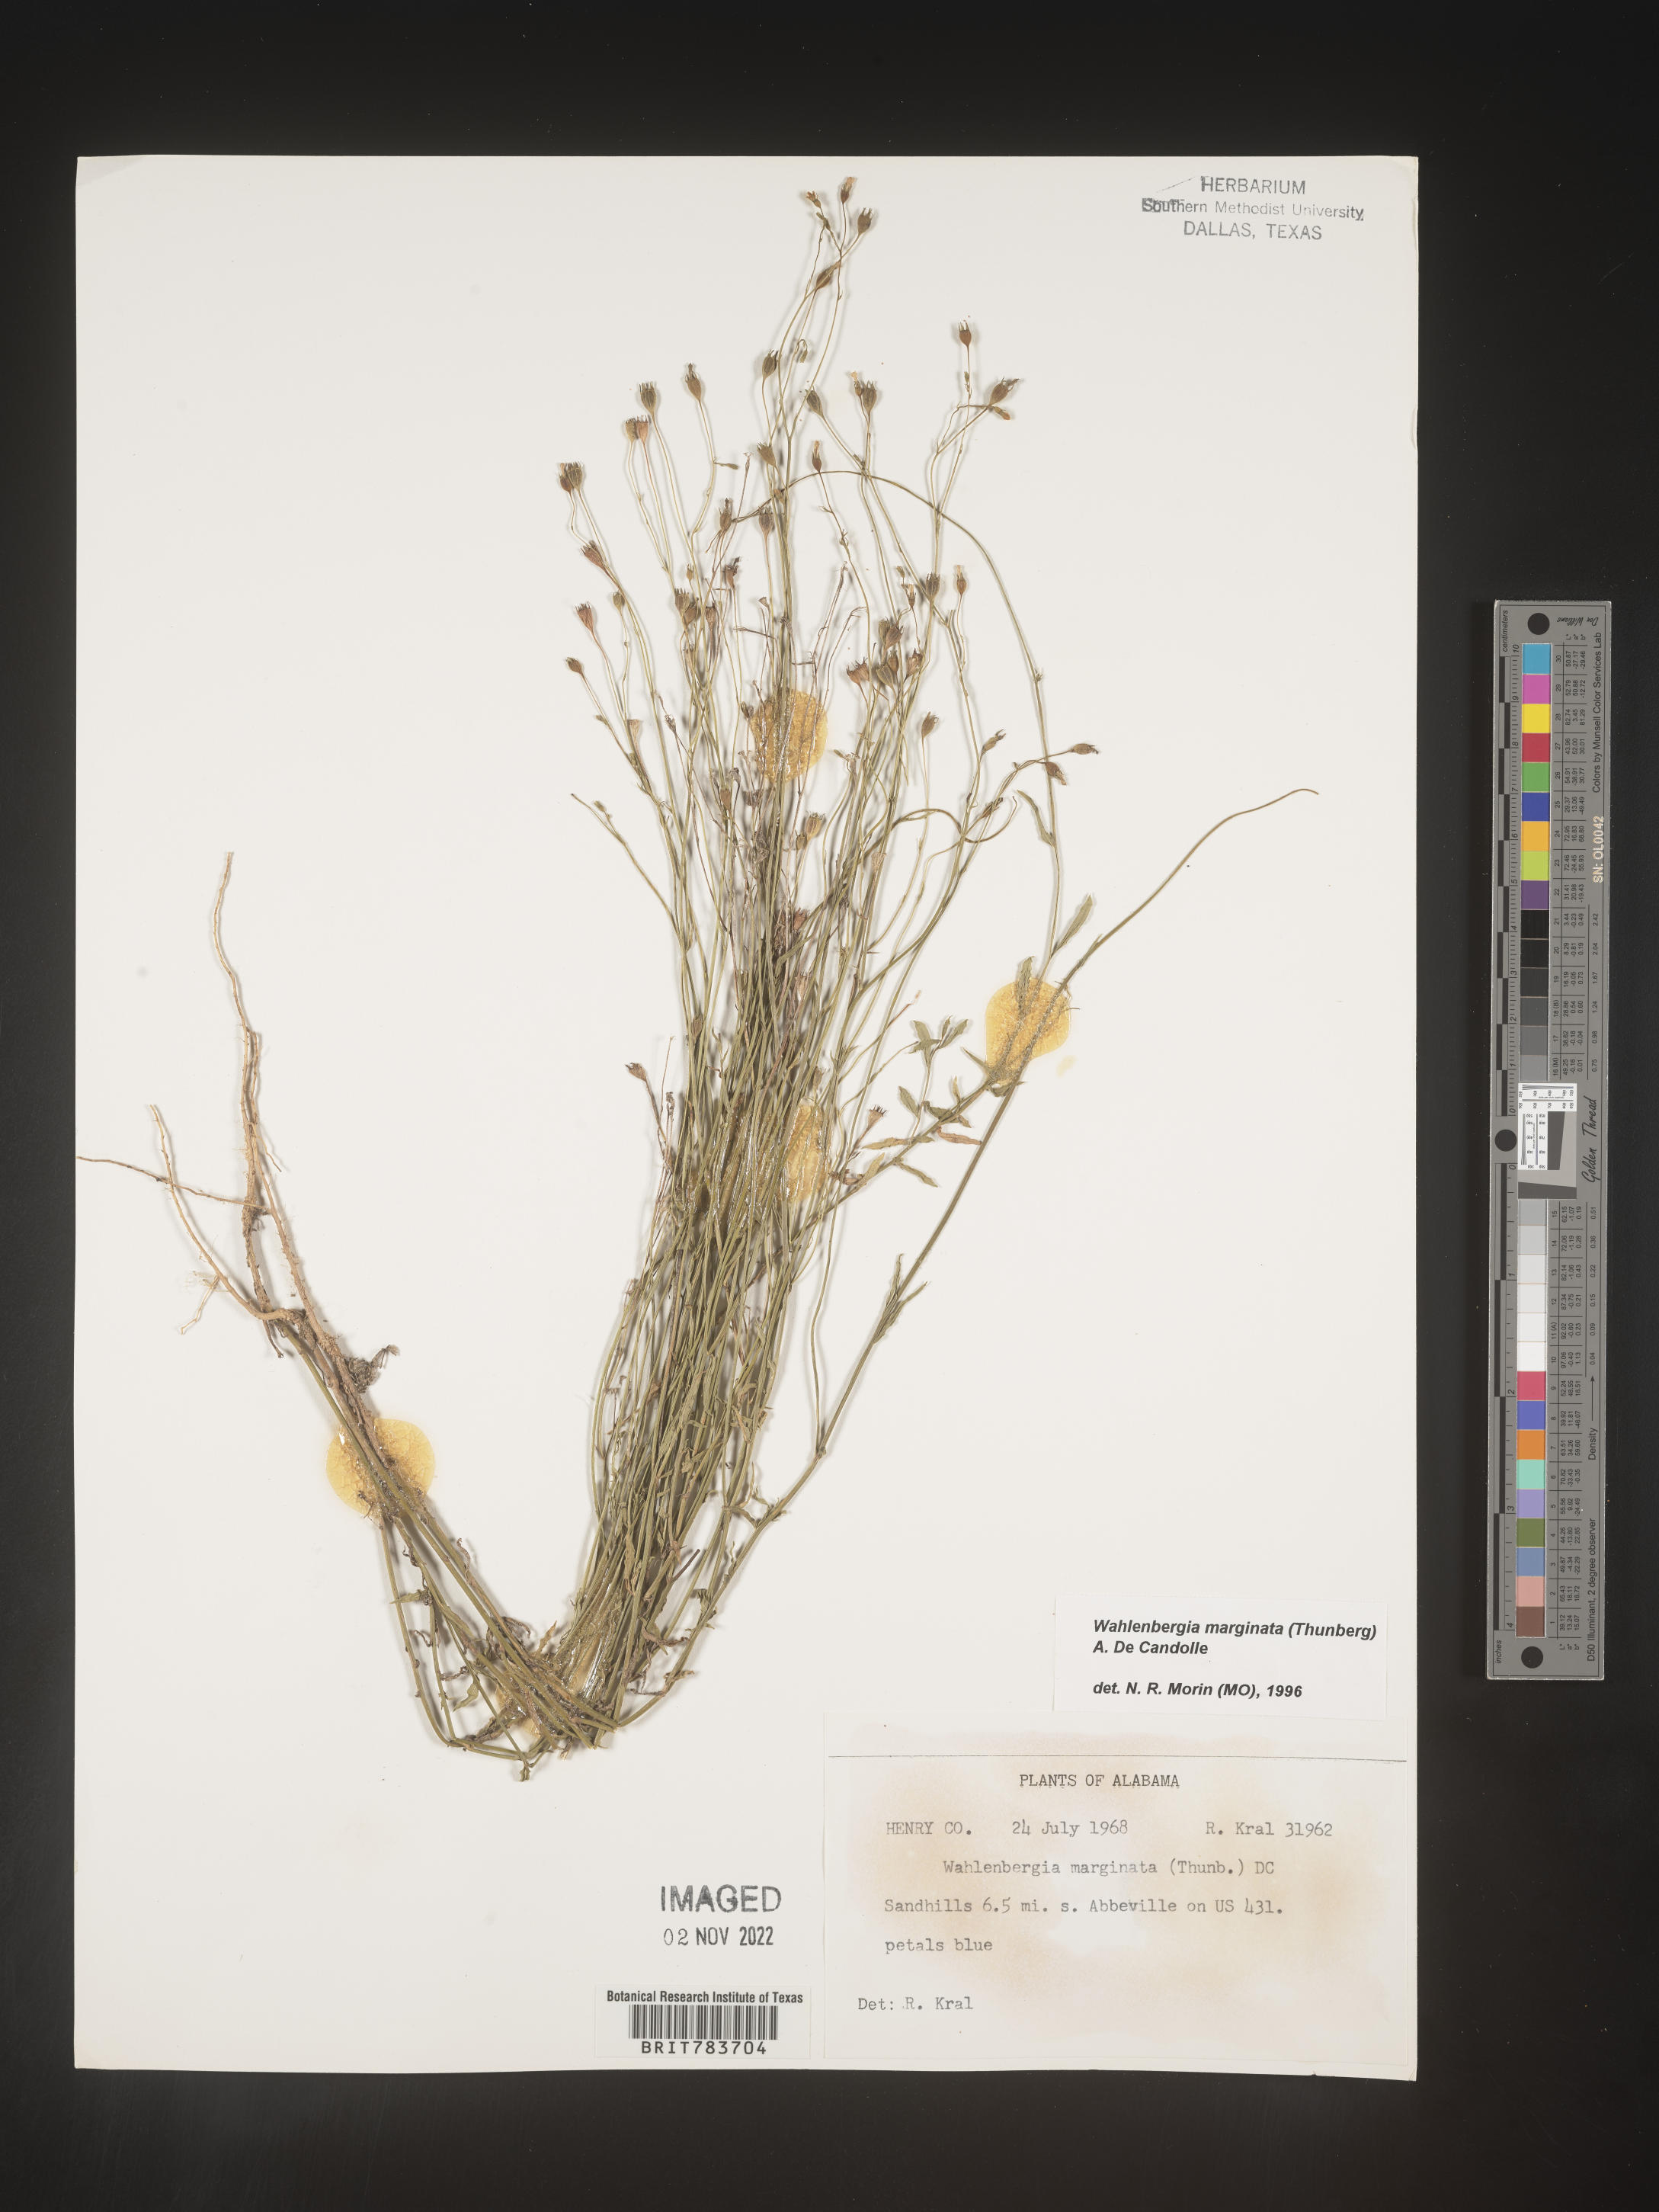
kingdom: Plantae
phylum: Tracheophyta
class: Magnoliopsida
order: Asterales
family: Campanulaceae
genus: Wahlenbergia
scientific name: Wahlenbergia marginata
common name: Southern rockbell
